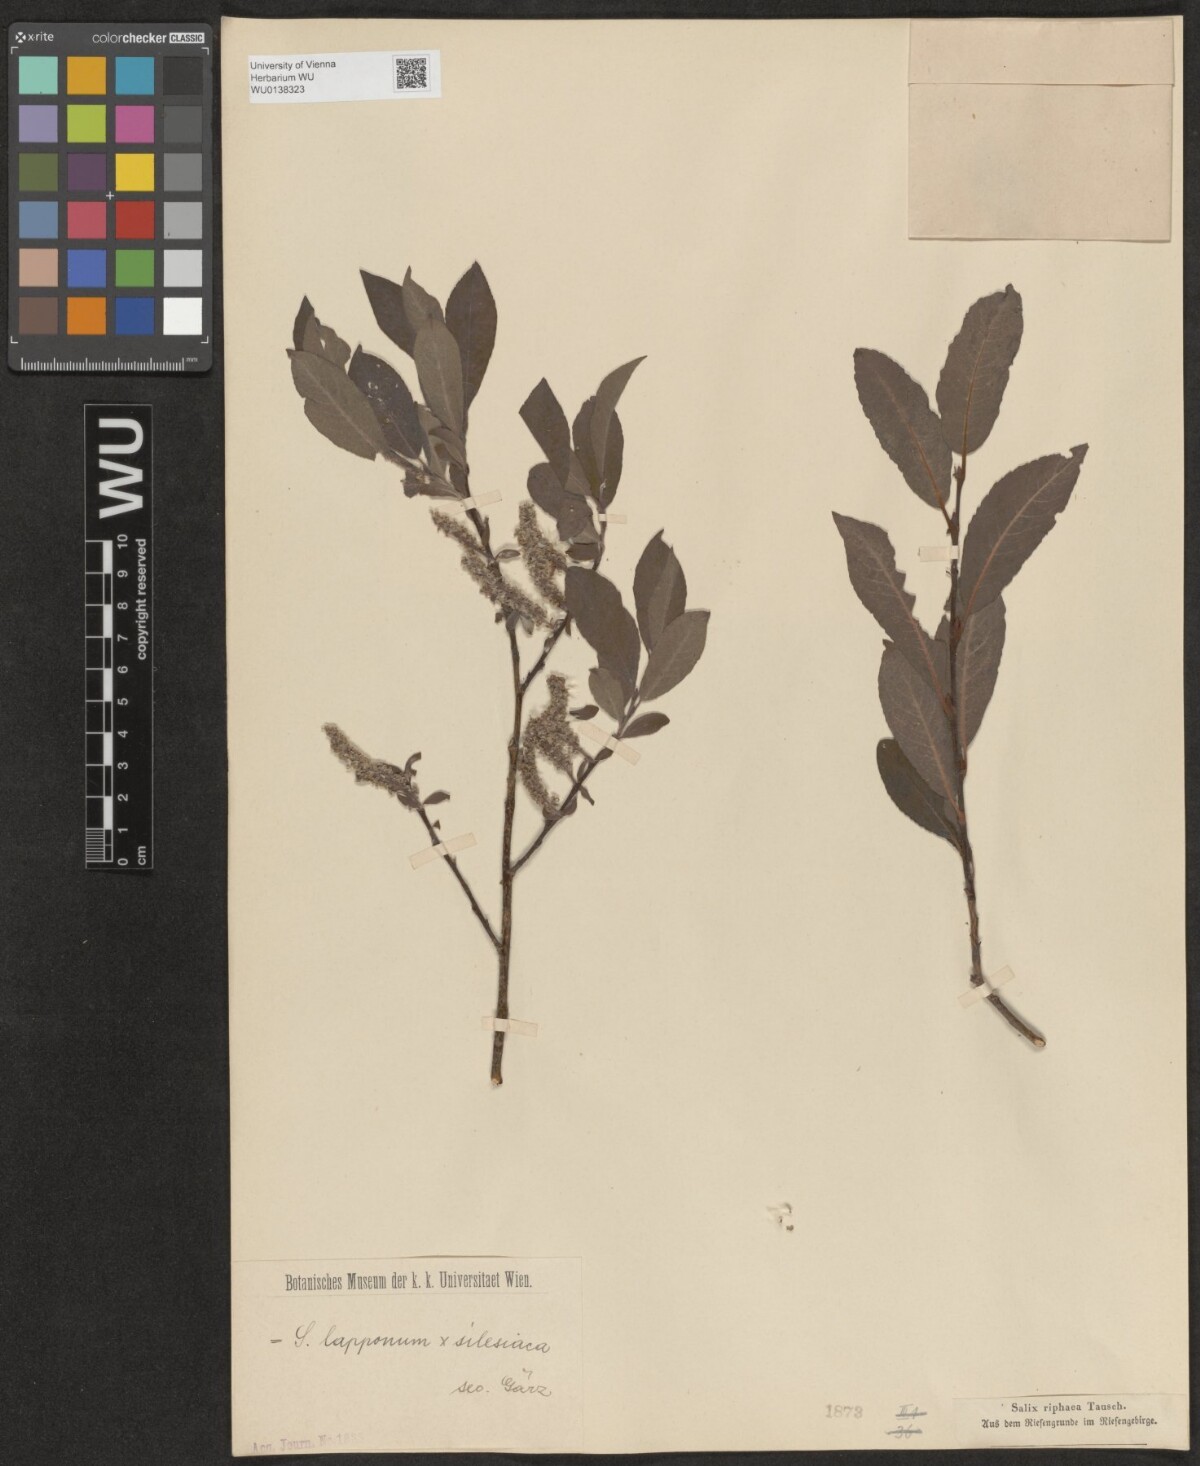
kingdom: Plantae
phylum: Tracheophyta
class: Magnoliopsida
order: Malpighiales
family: Salicaceae
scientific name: Salicaceae
